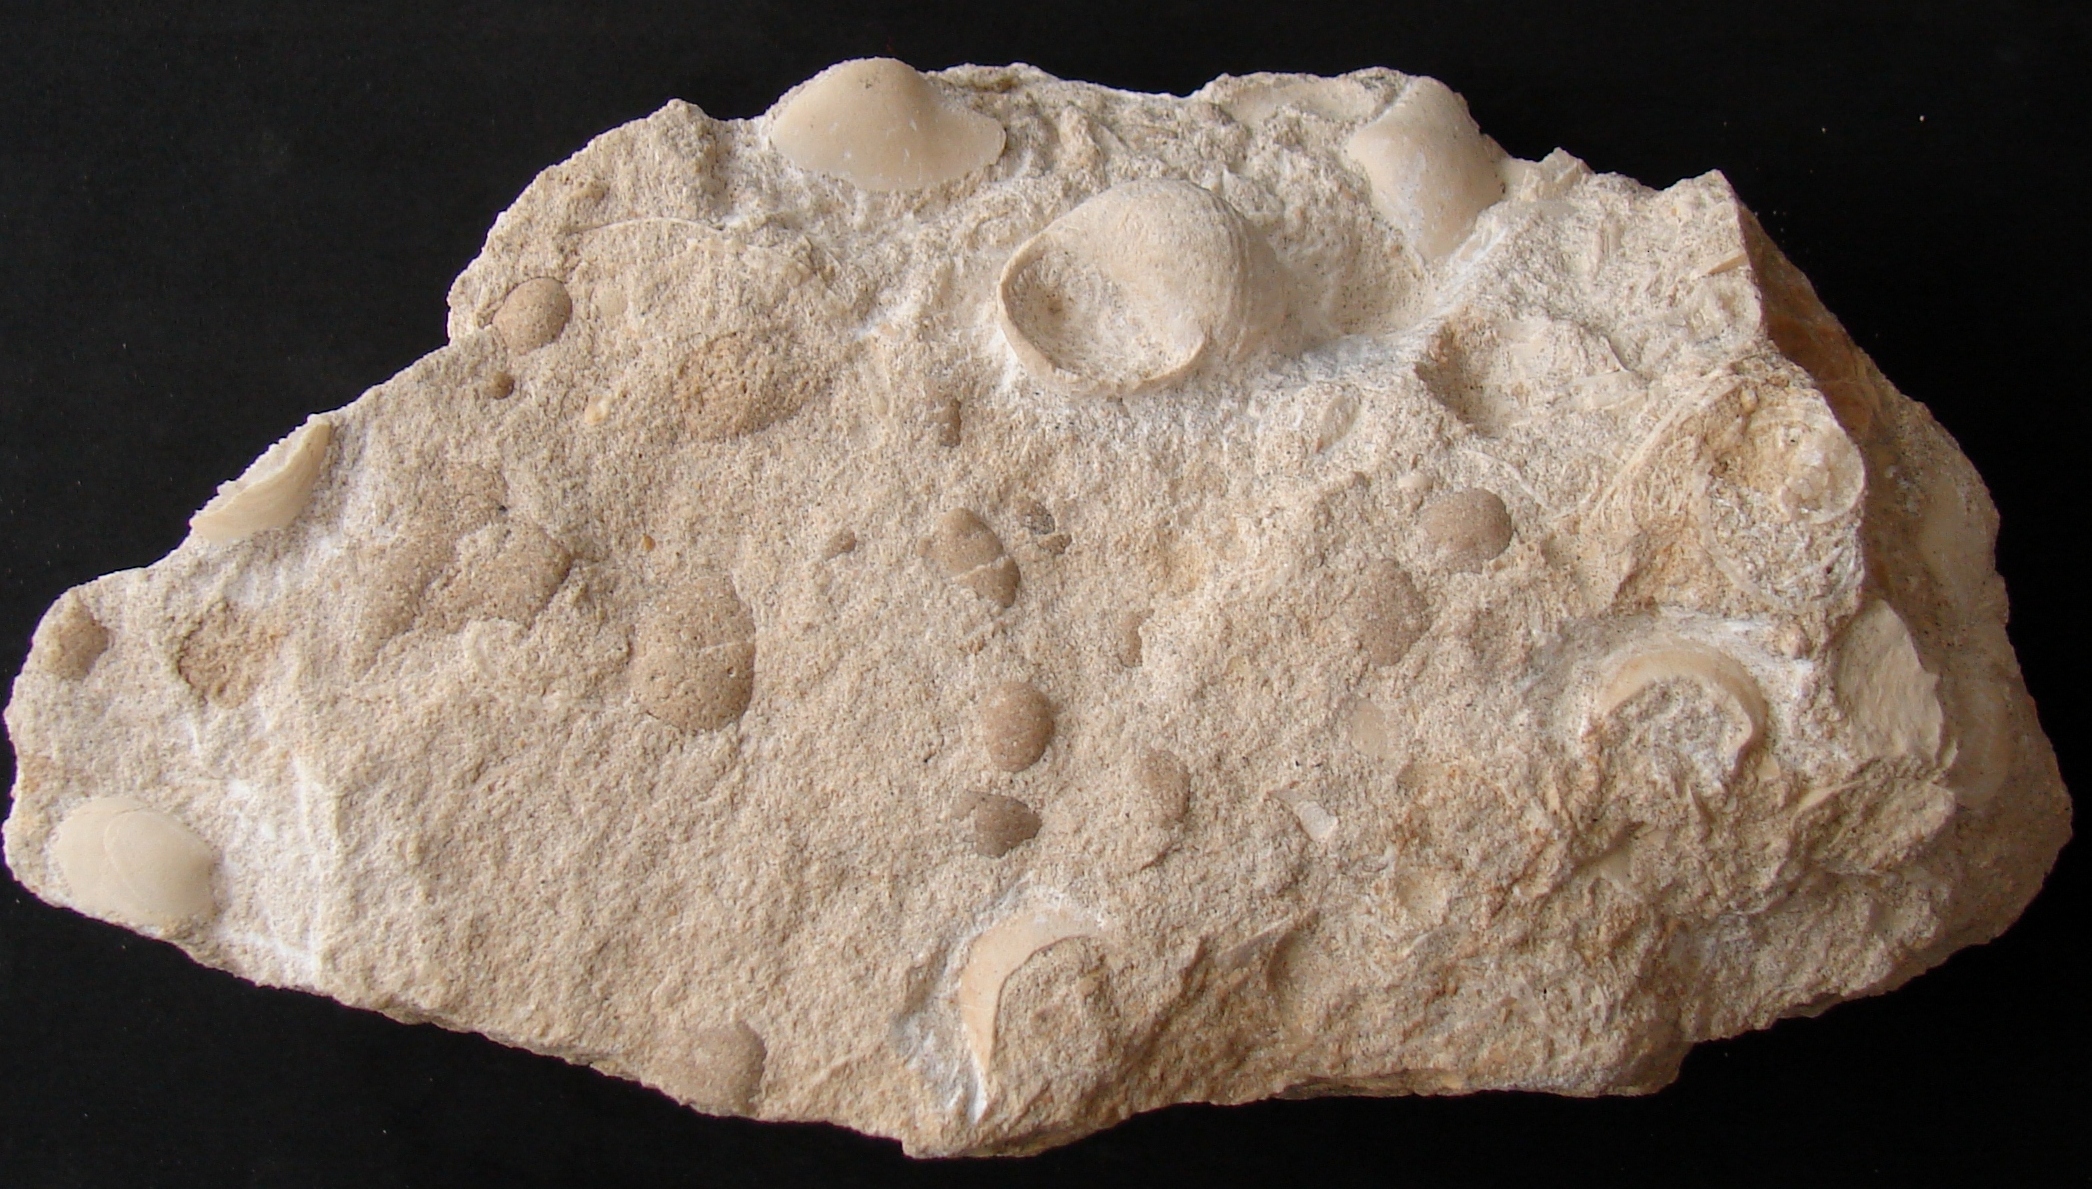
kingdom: Animalia
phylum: Mollusca
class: Gastropoda
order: Neogastropoda
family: Purpurinidae
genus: Microschiza
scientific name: Microschiza
